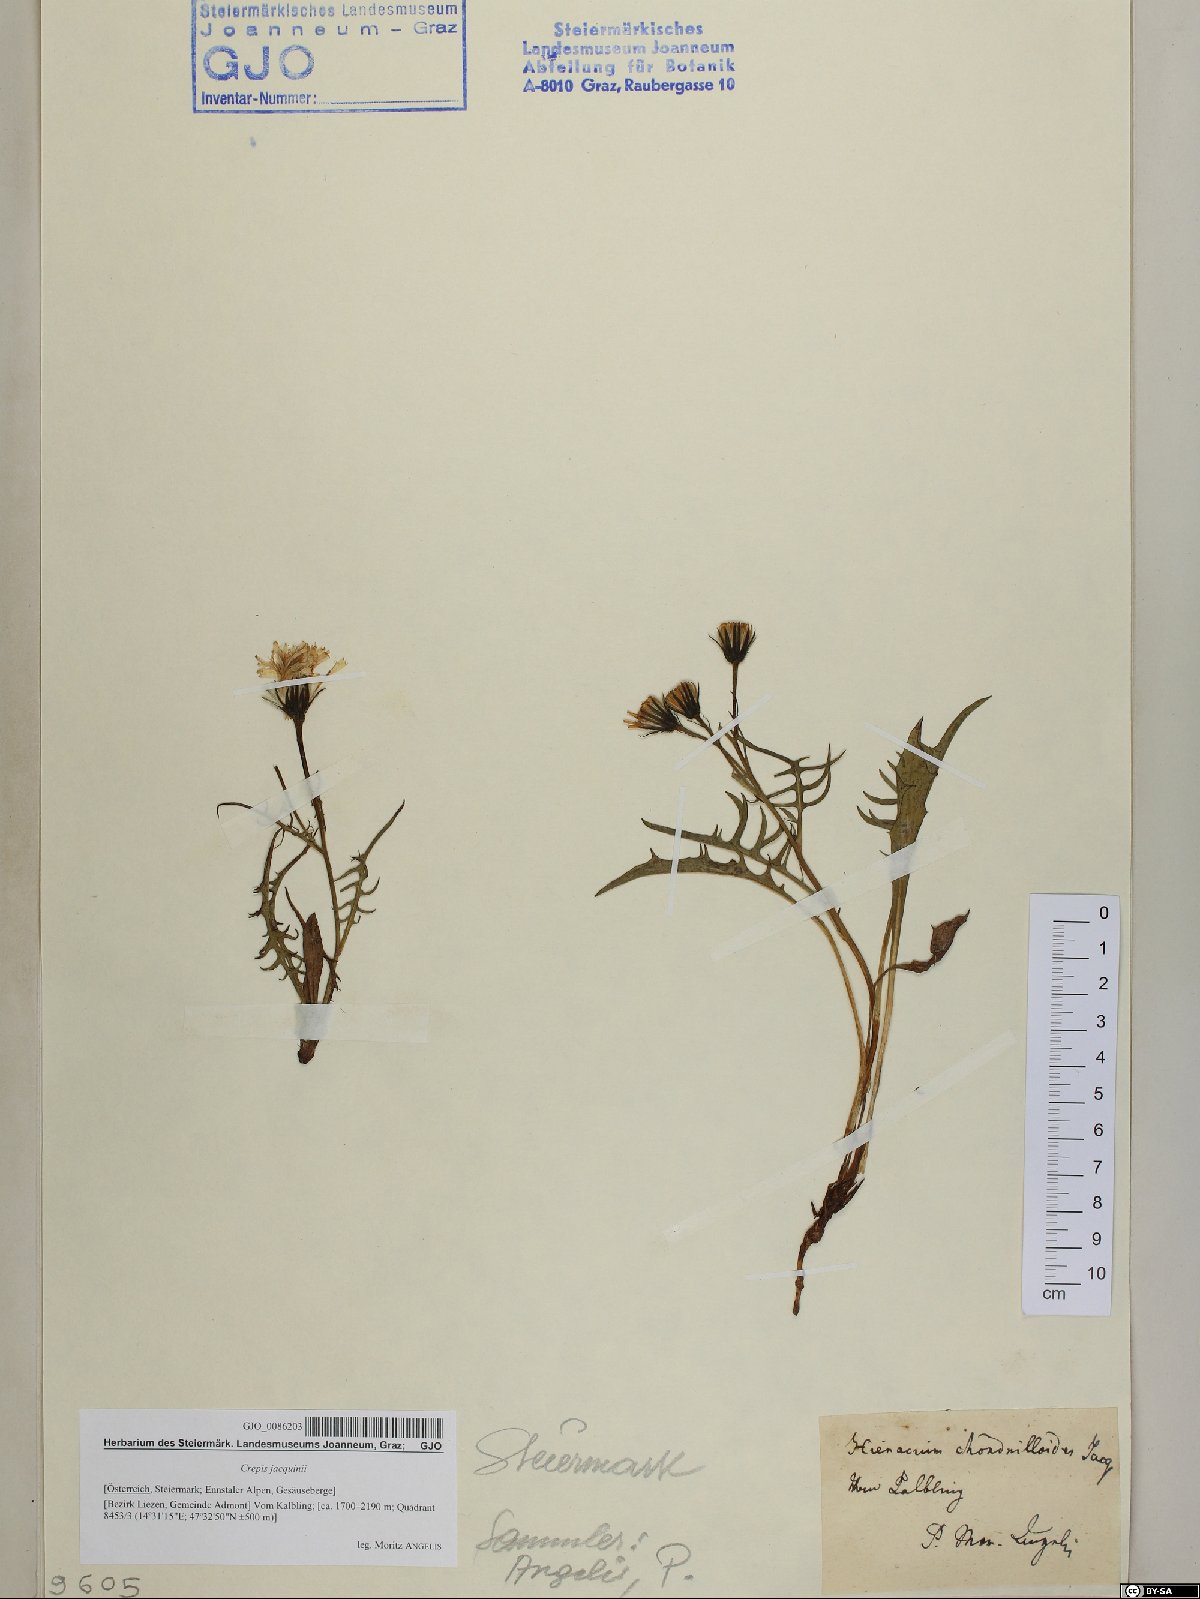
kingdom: Plantae
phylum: Tracheophyta
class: Magnoliopsida
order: Asterales
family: Asteraceae
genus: Crepis
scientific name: Crepis jacquinii
